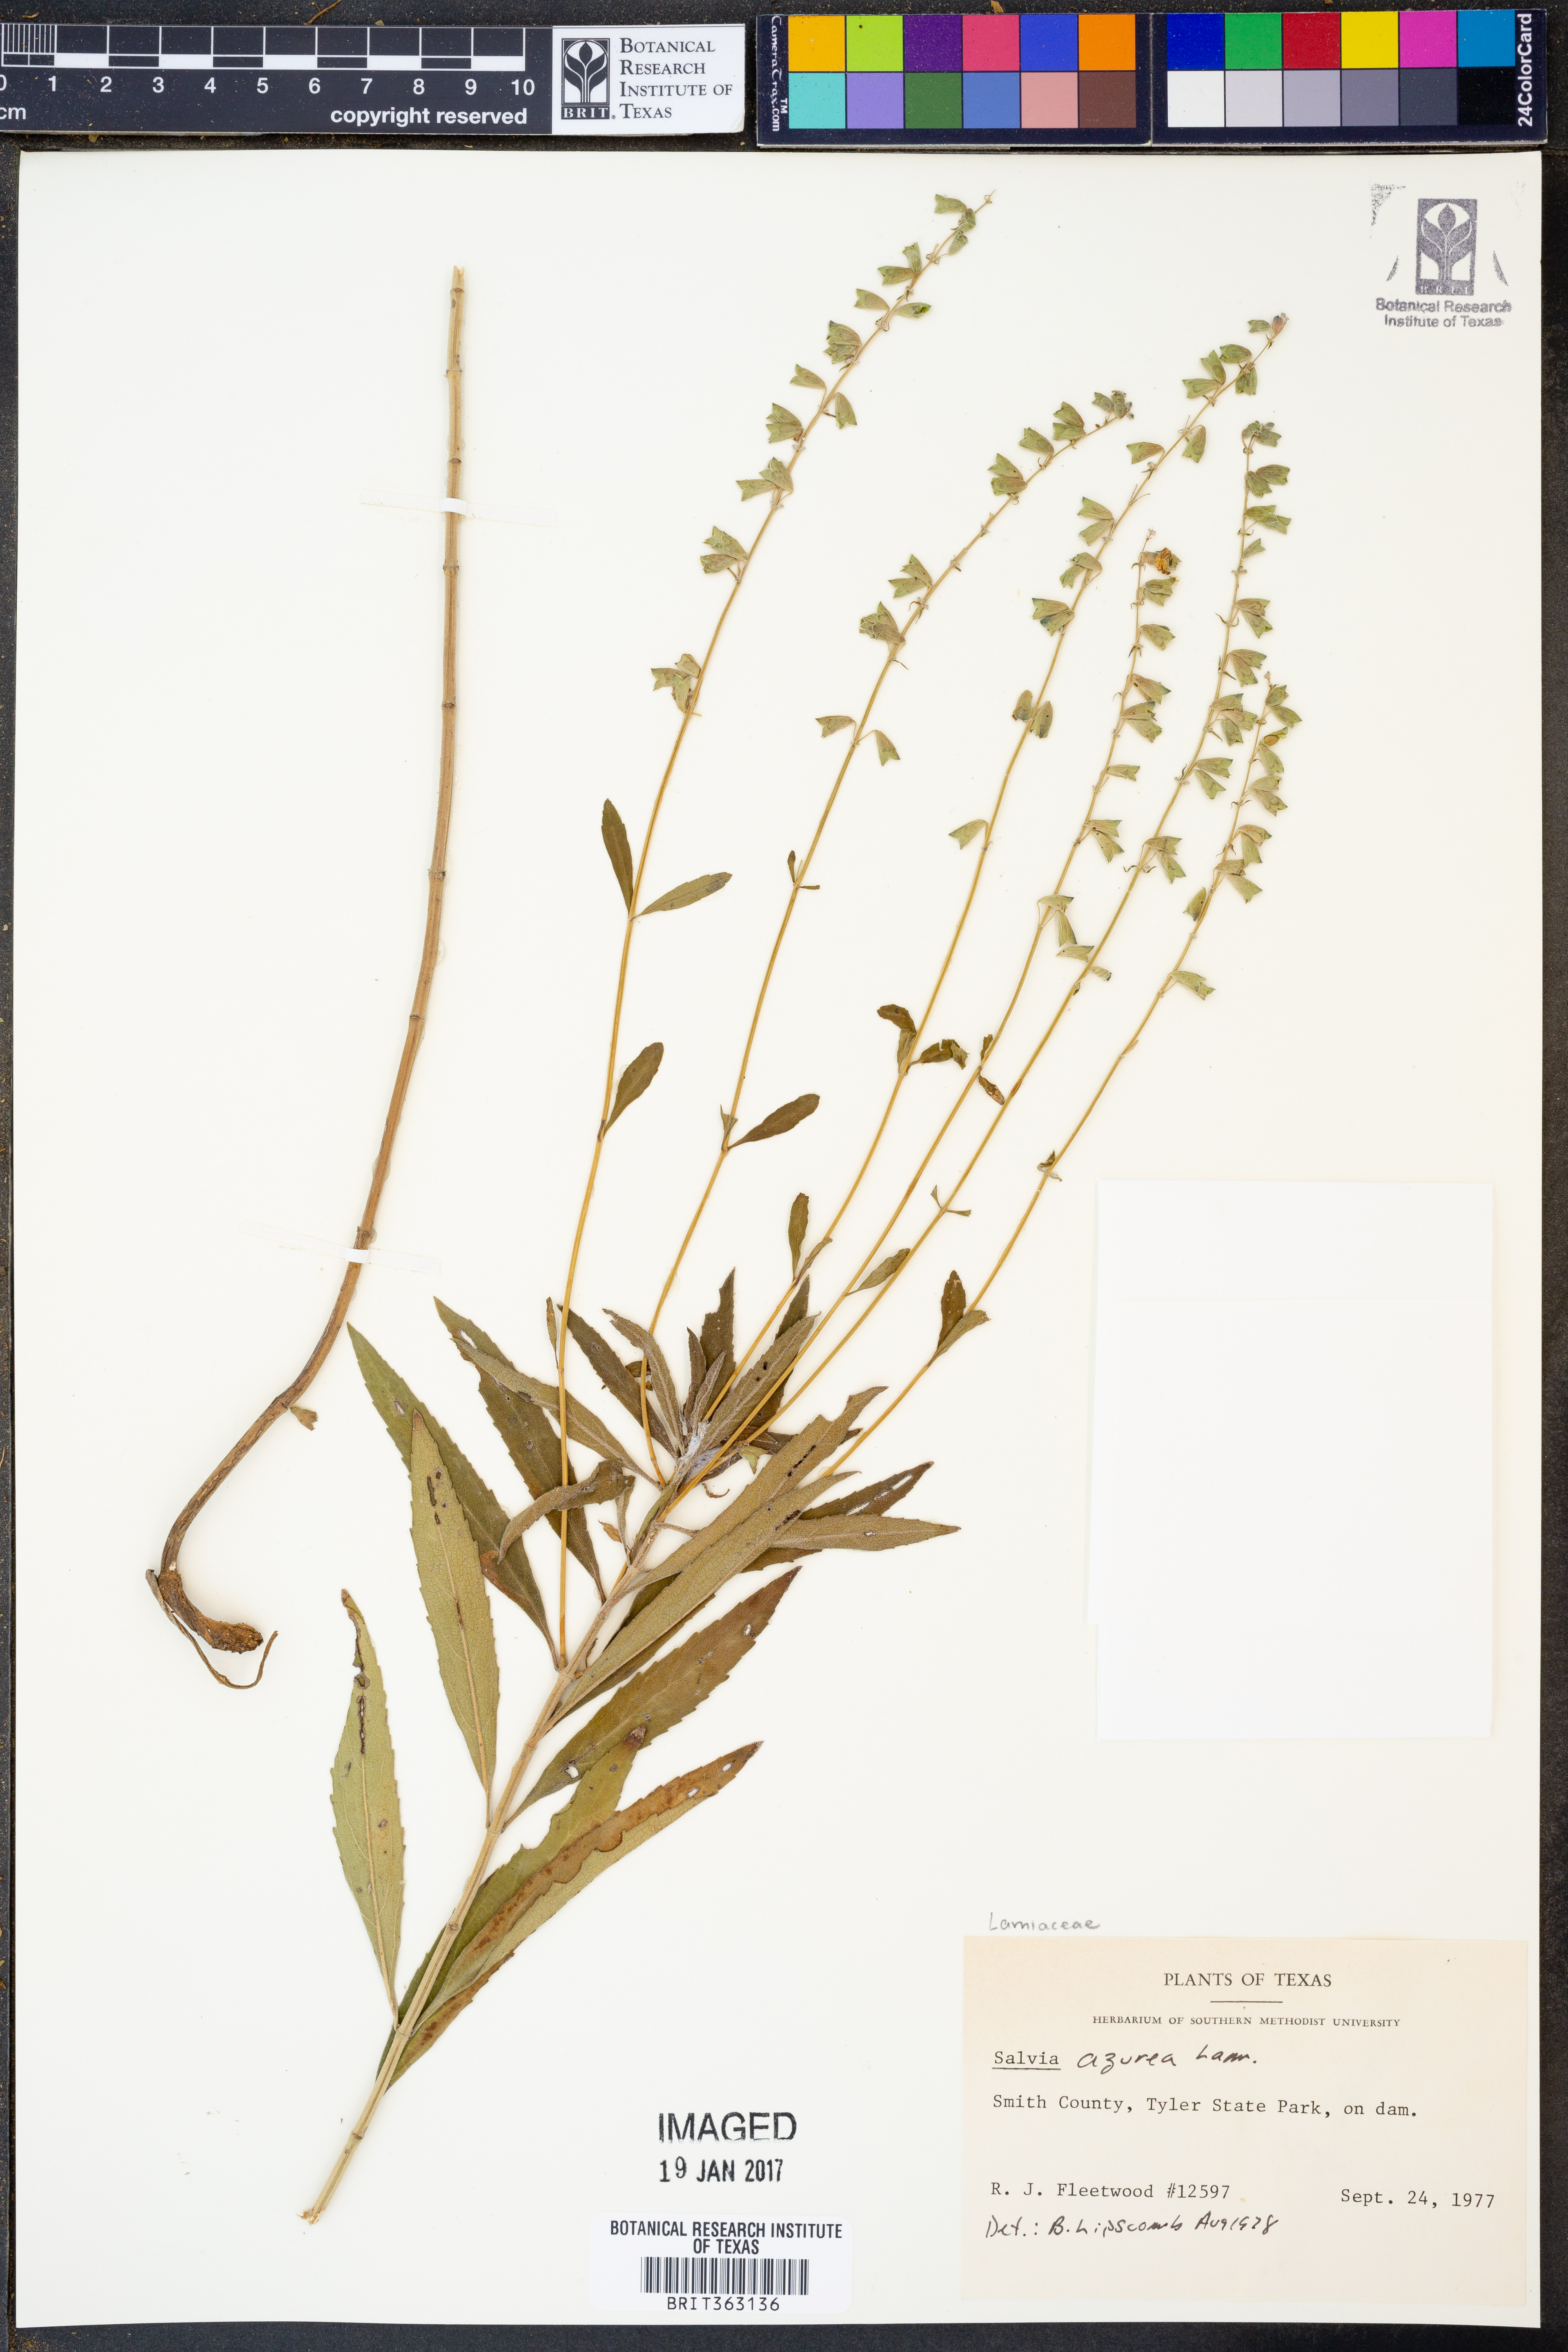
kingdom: Plantae
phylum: Tracheophyta
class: Magnoliopsida
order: Lamiales
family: Lamiaceae
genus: Salvia
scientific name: Salvia azurea
